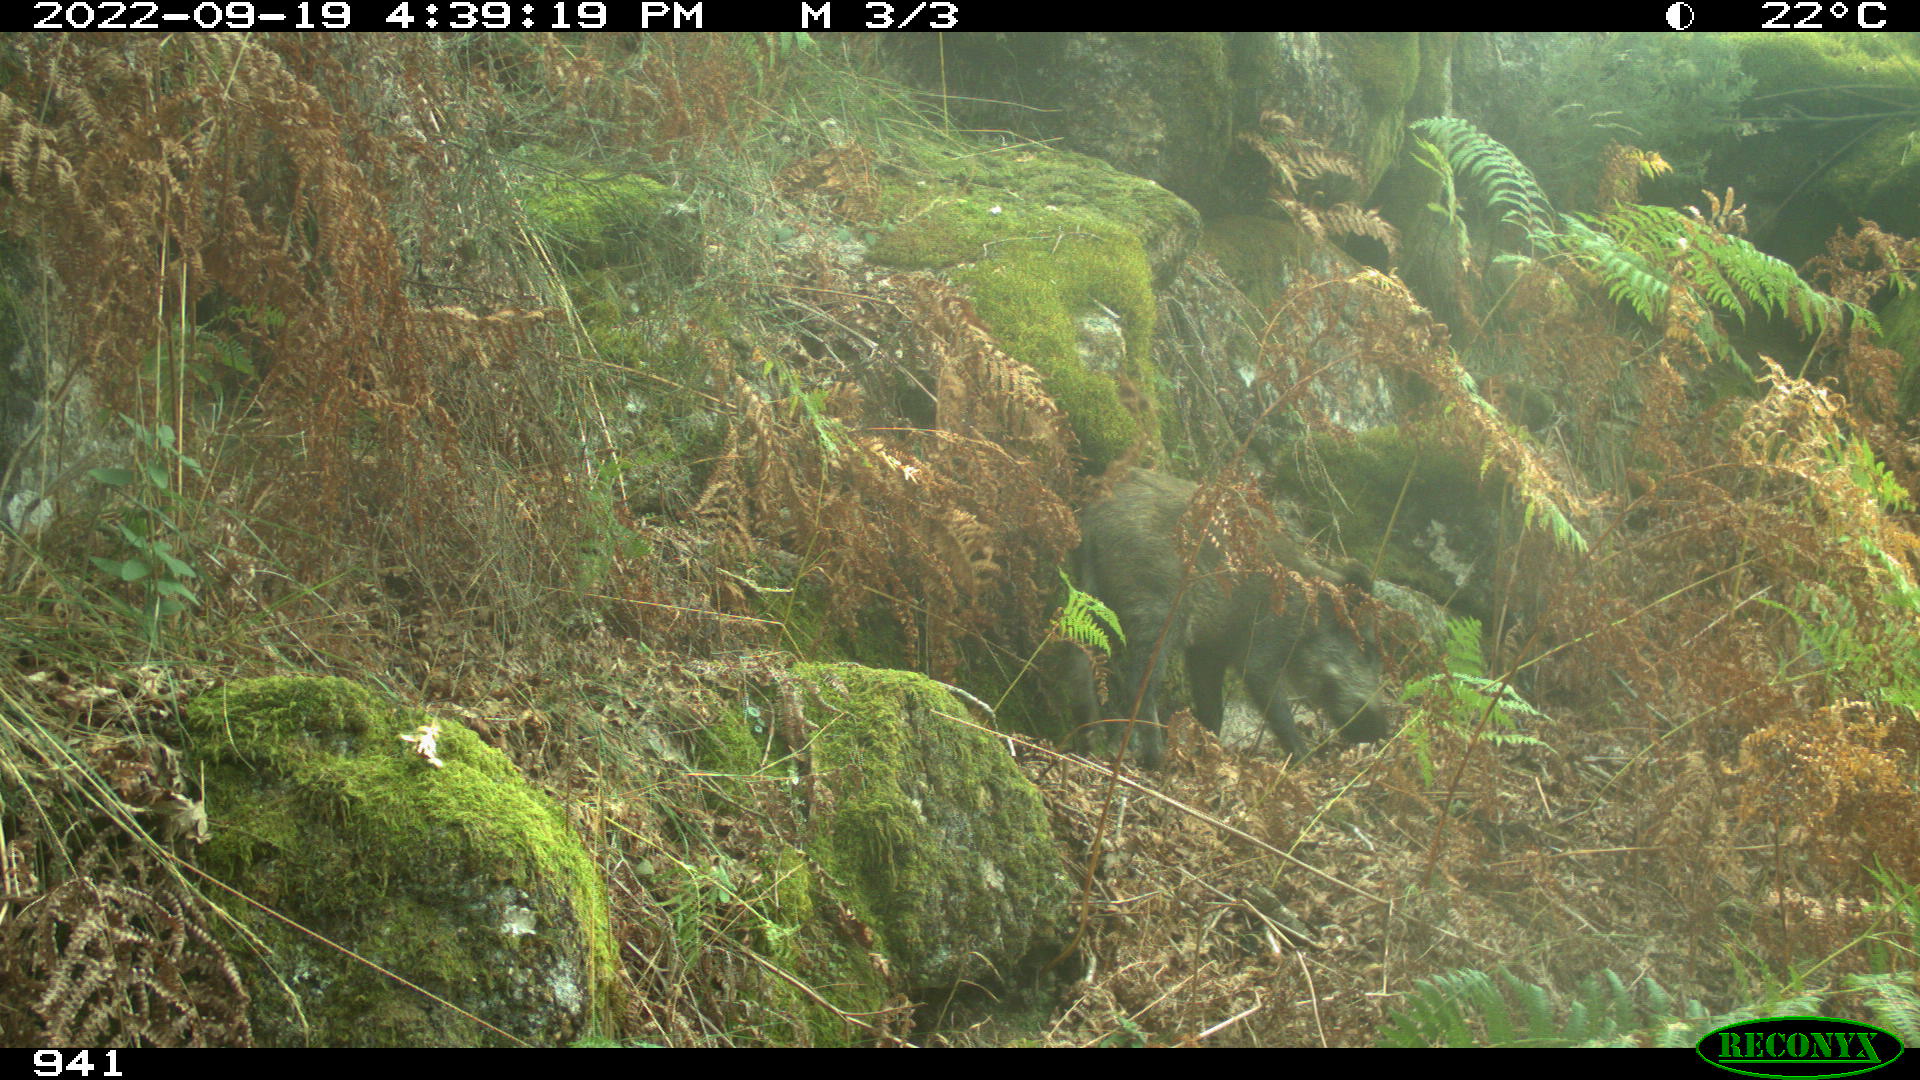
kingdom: Animalia
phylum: Chordata
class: Mammalia
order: Artiodactyla
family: Suidae
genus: Sus
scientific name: Sus scrofa
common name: Wild boar
